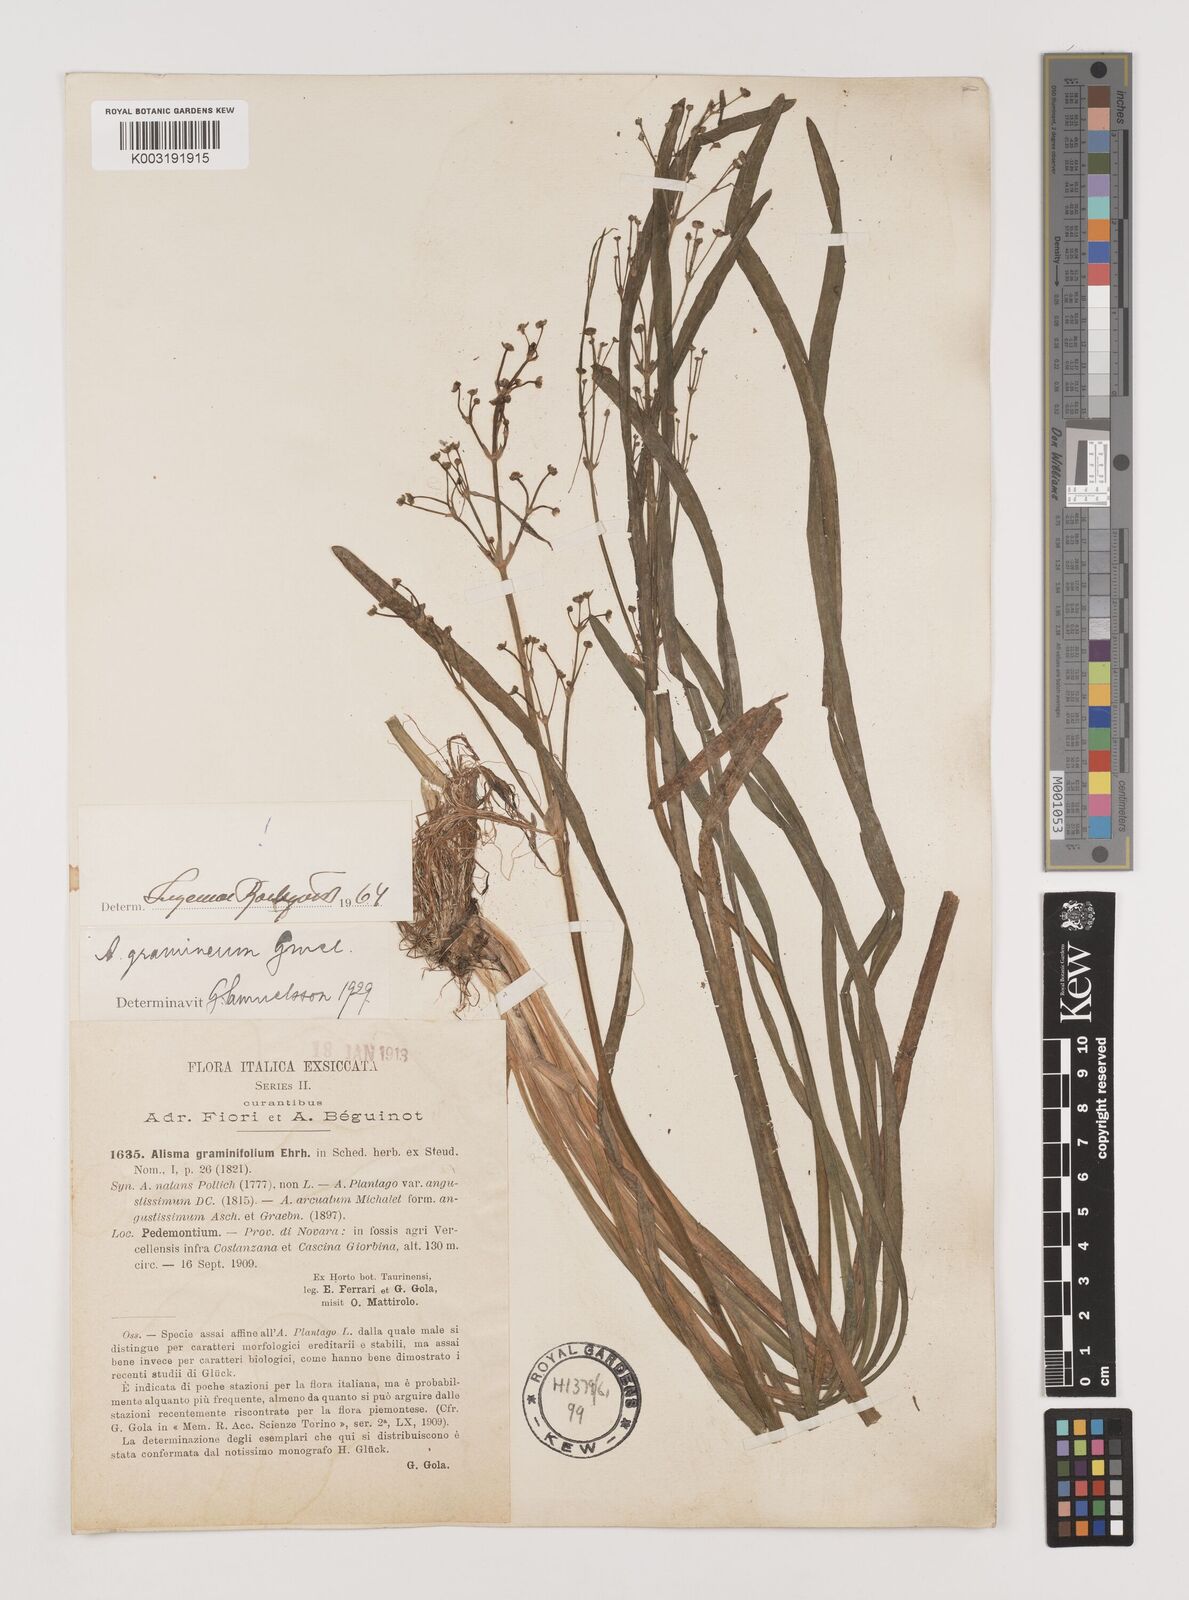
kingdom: Plantae
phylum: Tracheophyta
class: Liliopsida
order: Alismatales
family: Alismataceae
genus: Alisma
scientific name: Alisma gramineum
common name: Ribbon-leaved water-plantain
